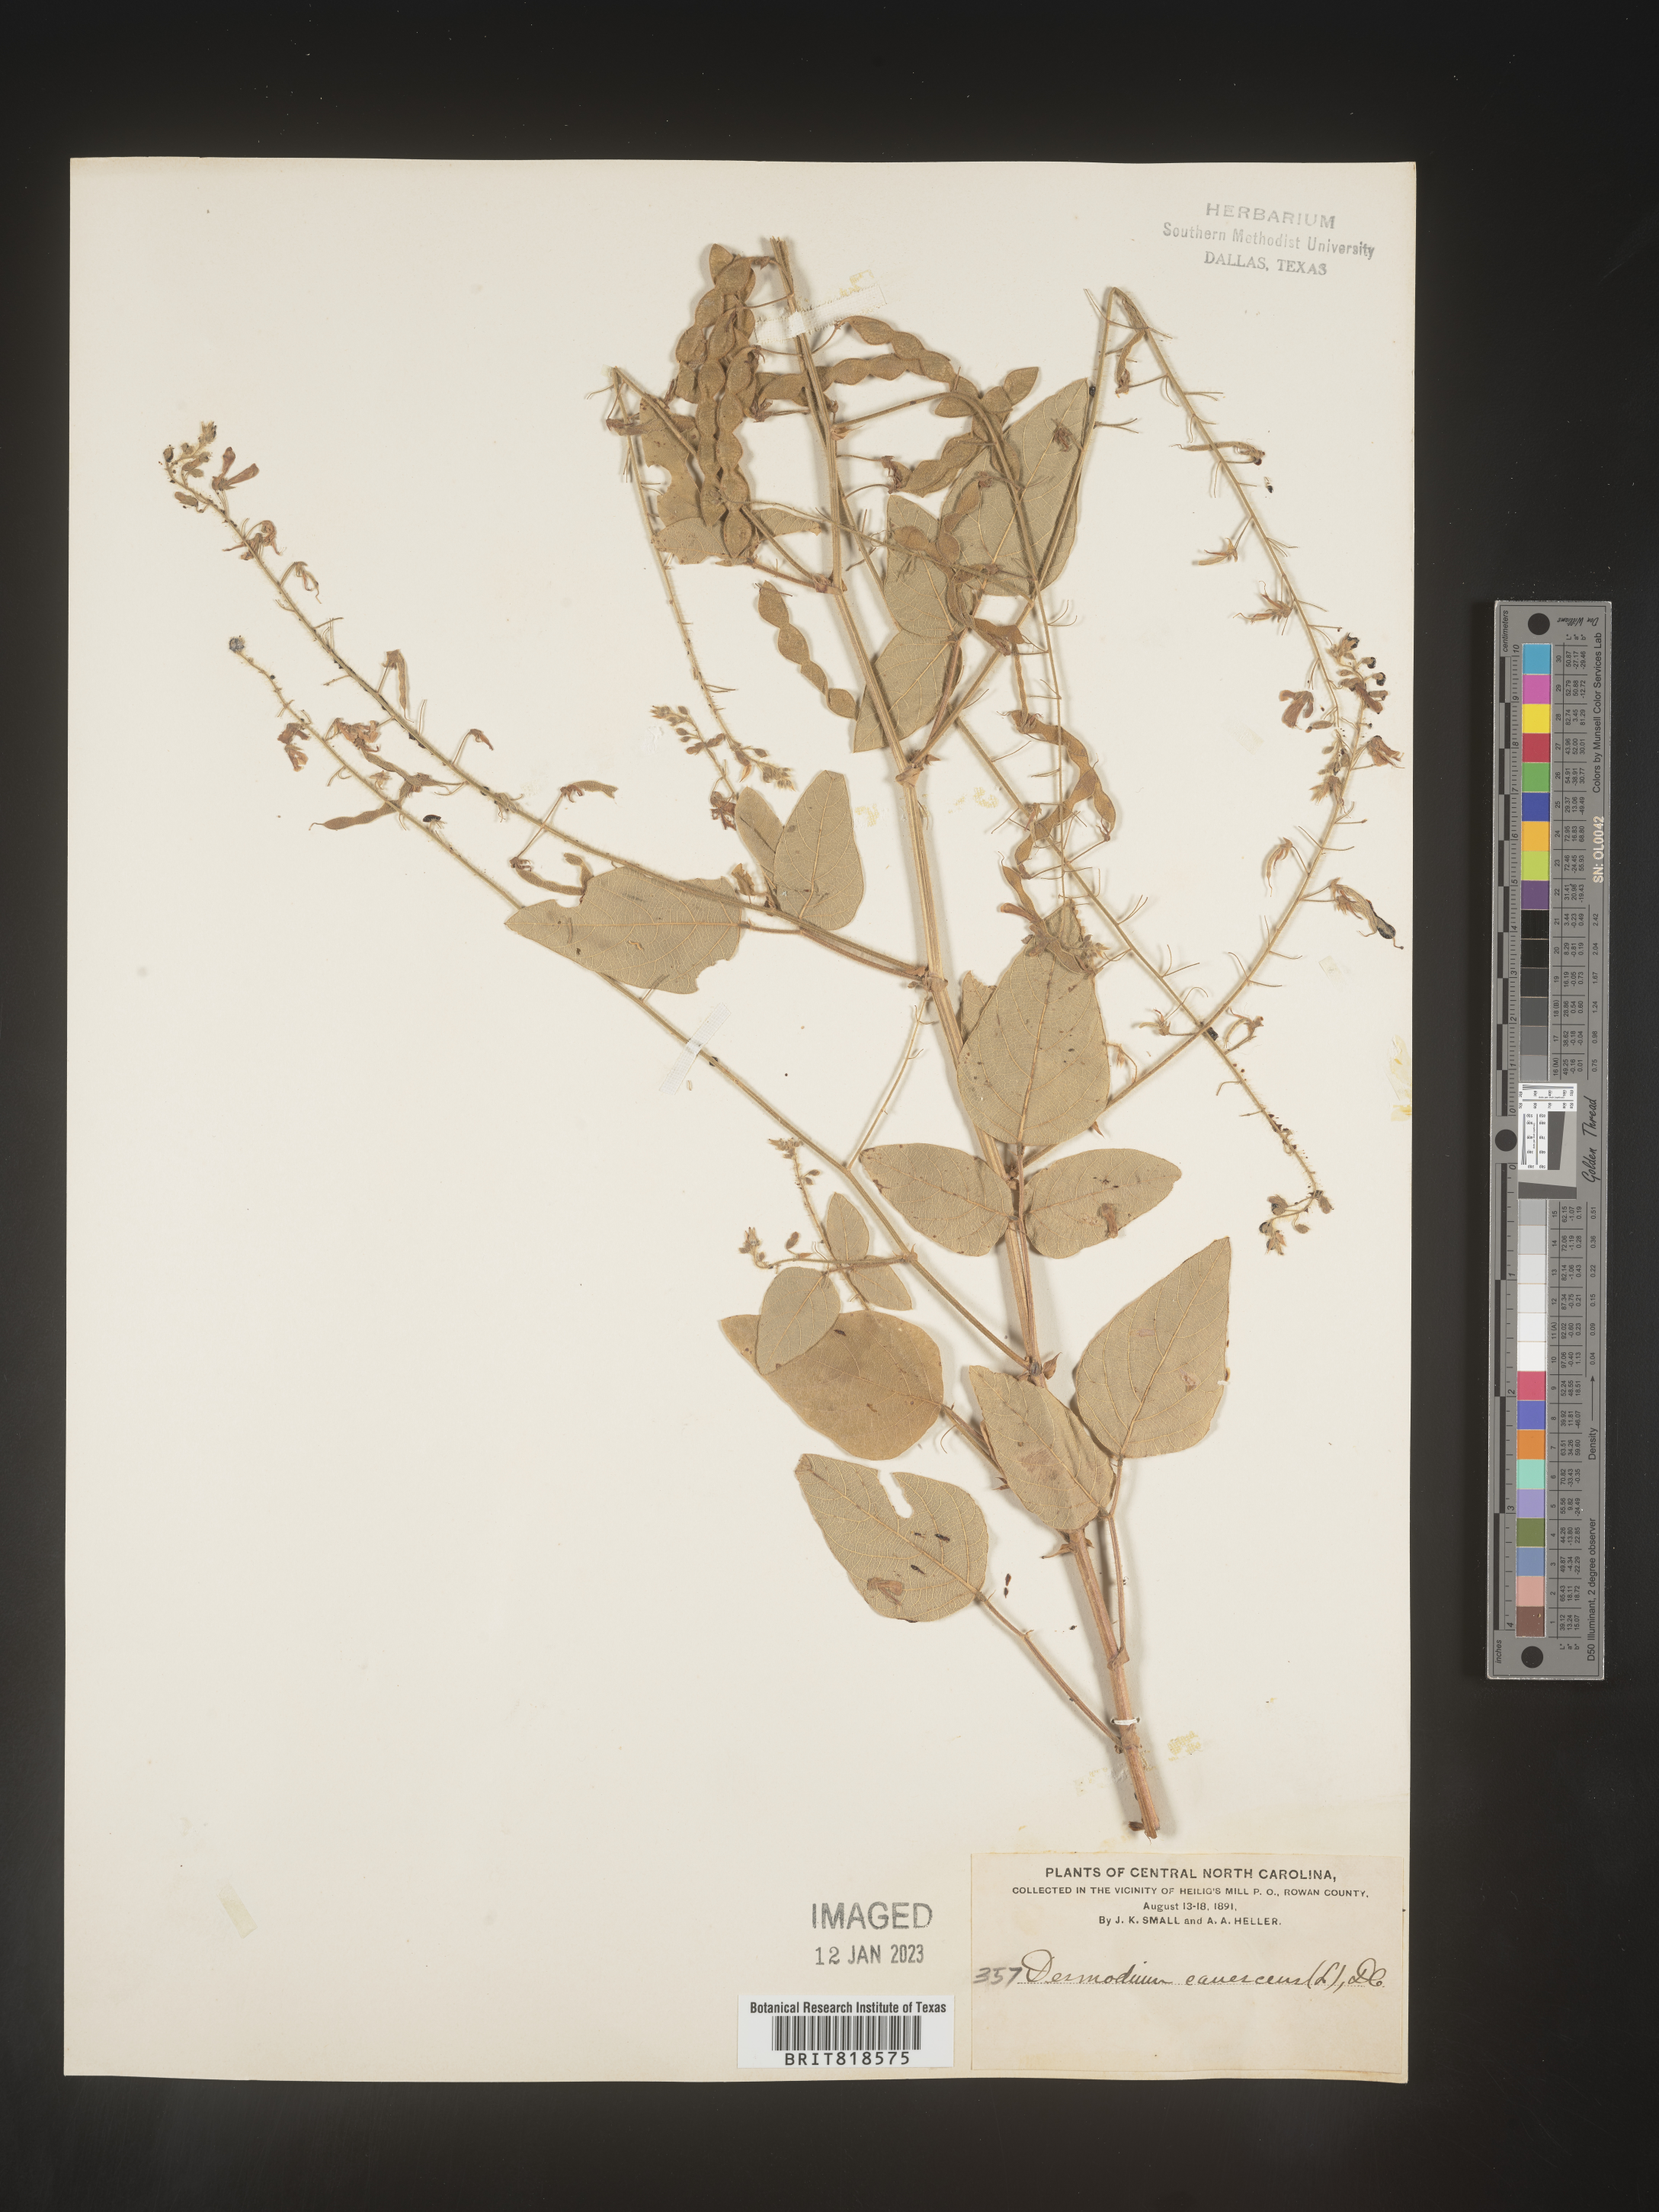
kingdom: Plantae
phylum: Tracheophyta
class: Magnoliopsida
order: Fabales
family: Fabaceae
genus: Desmodium
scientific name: Desmodium canescens
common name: Hoary tick-clover
